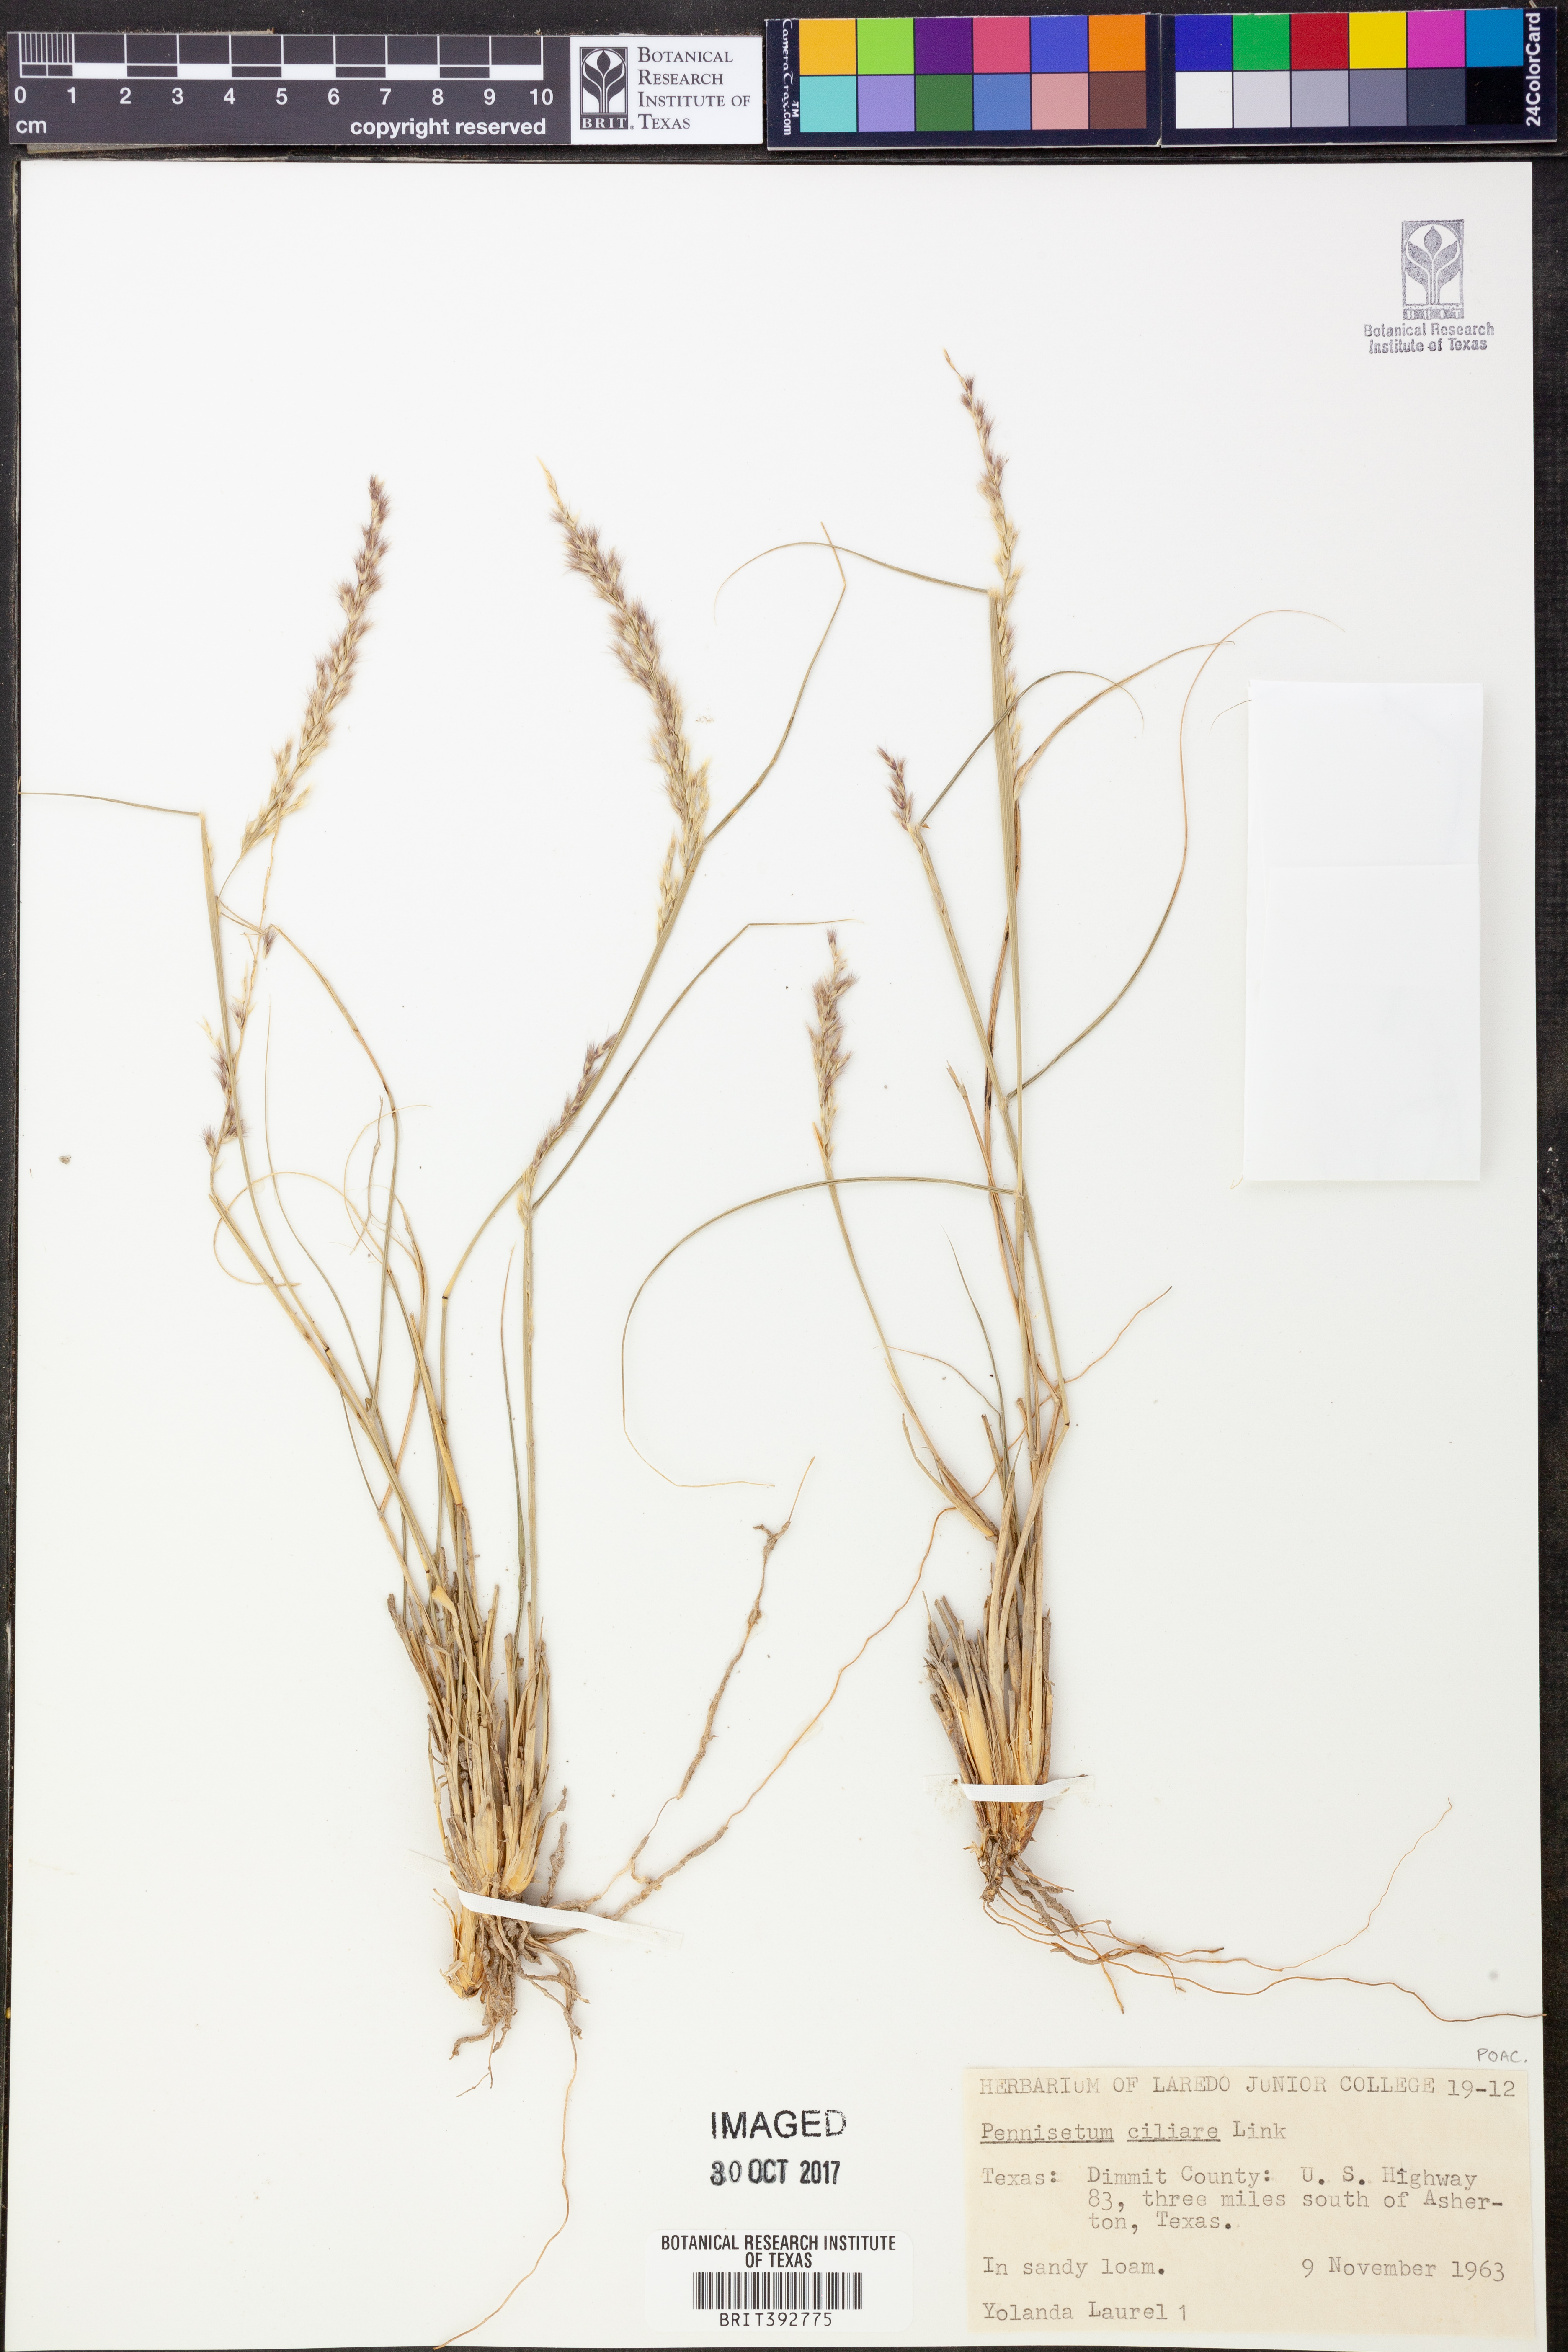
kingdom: Plantae
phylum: Tracheophyta
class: Liliopsida
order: Poales
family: Poaceae
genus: Cenchrus
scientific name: Cenchrus ciliaris
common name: Buffelgrass
